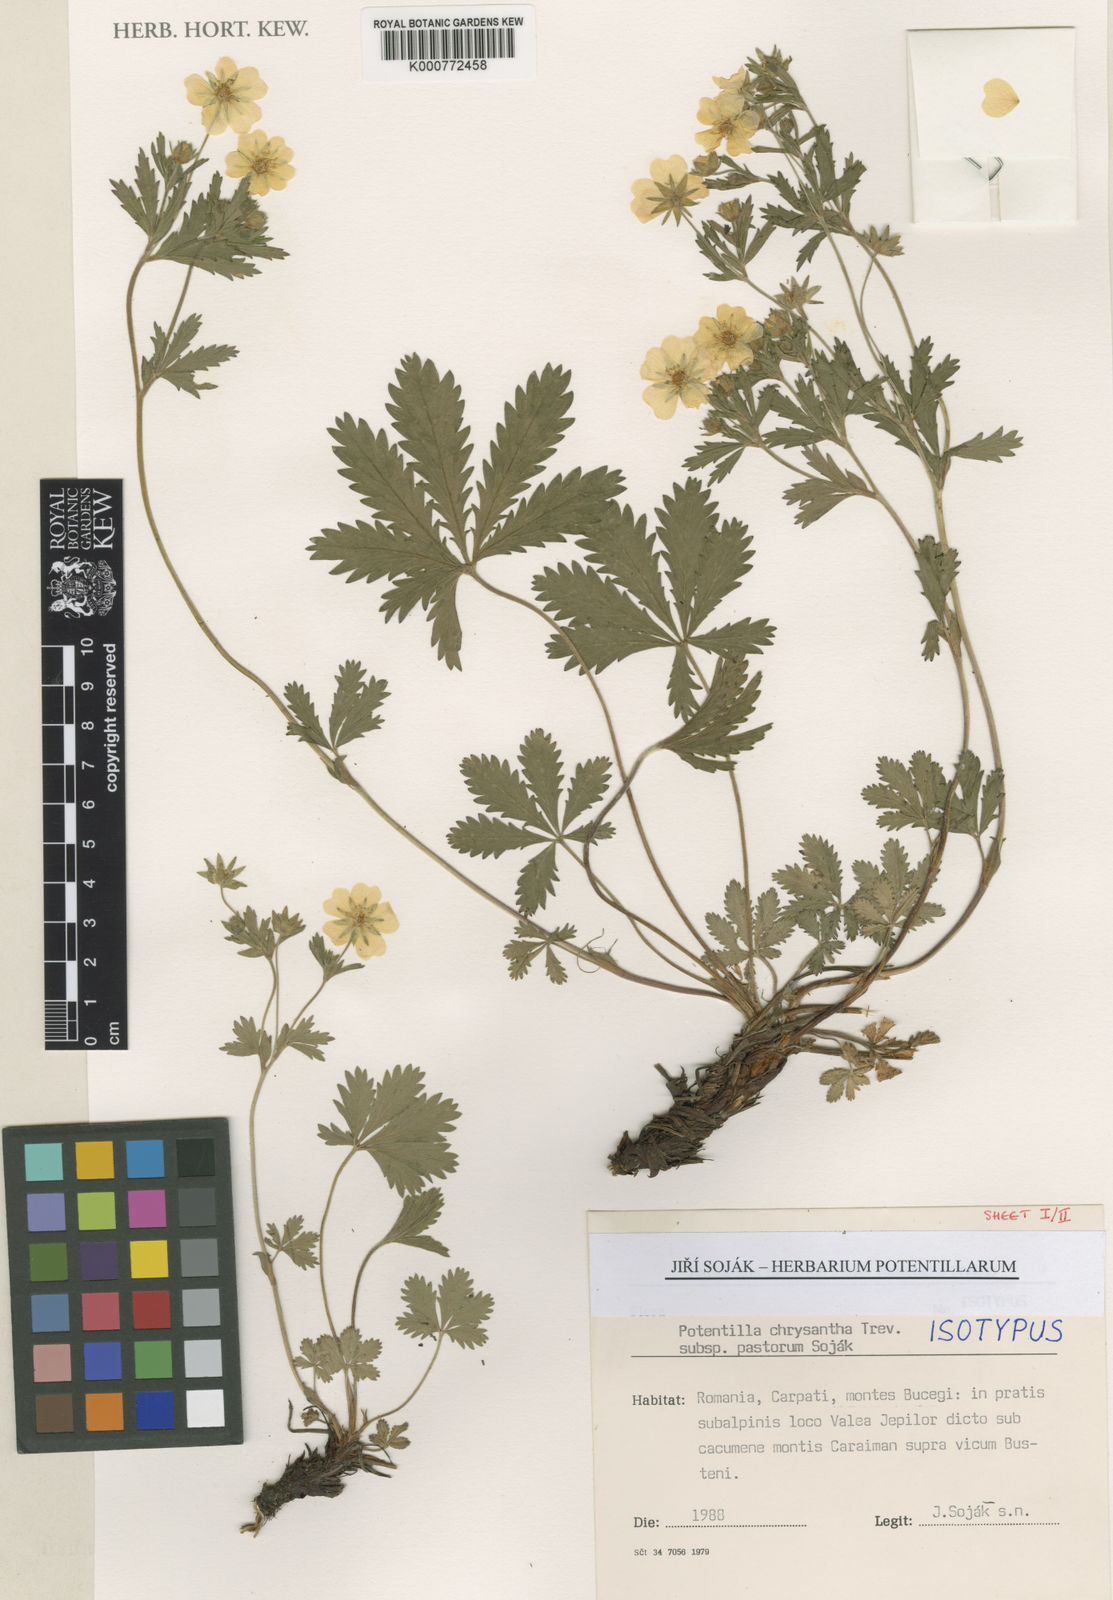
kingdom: Plantae
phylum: Tracheophyta
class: Magnoliopsida
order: Rosales
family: Rosaceae
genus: Potentilla
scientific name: Potentilla chrysantha
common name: Thuringian cinquefoil
